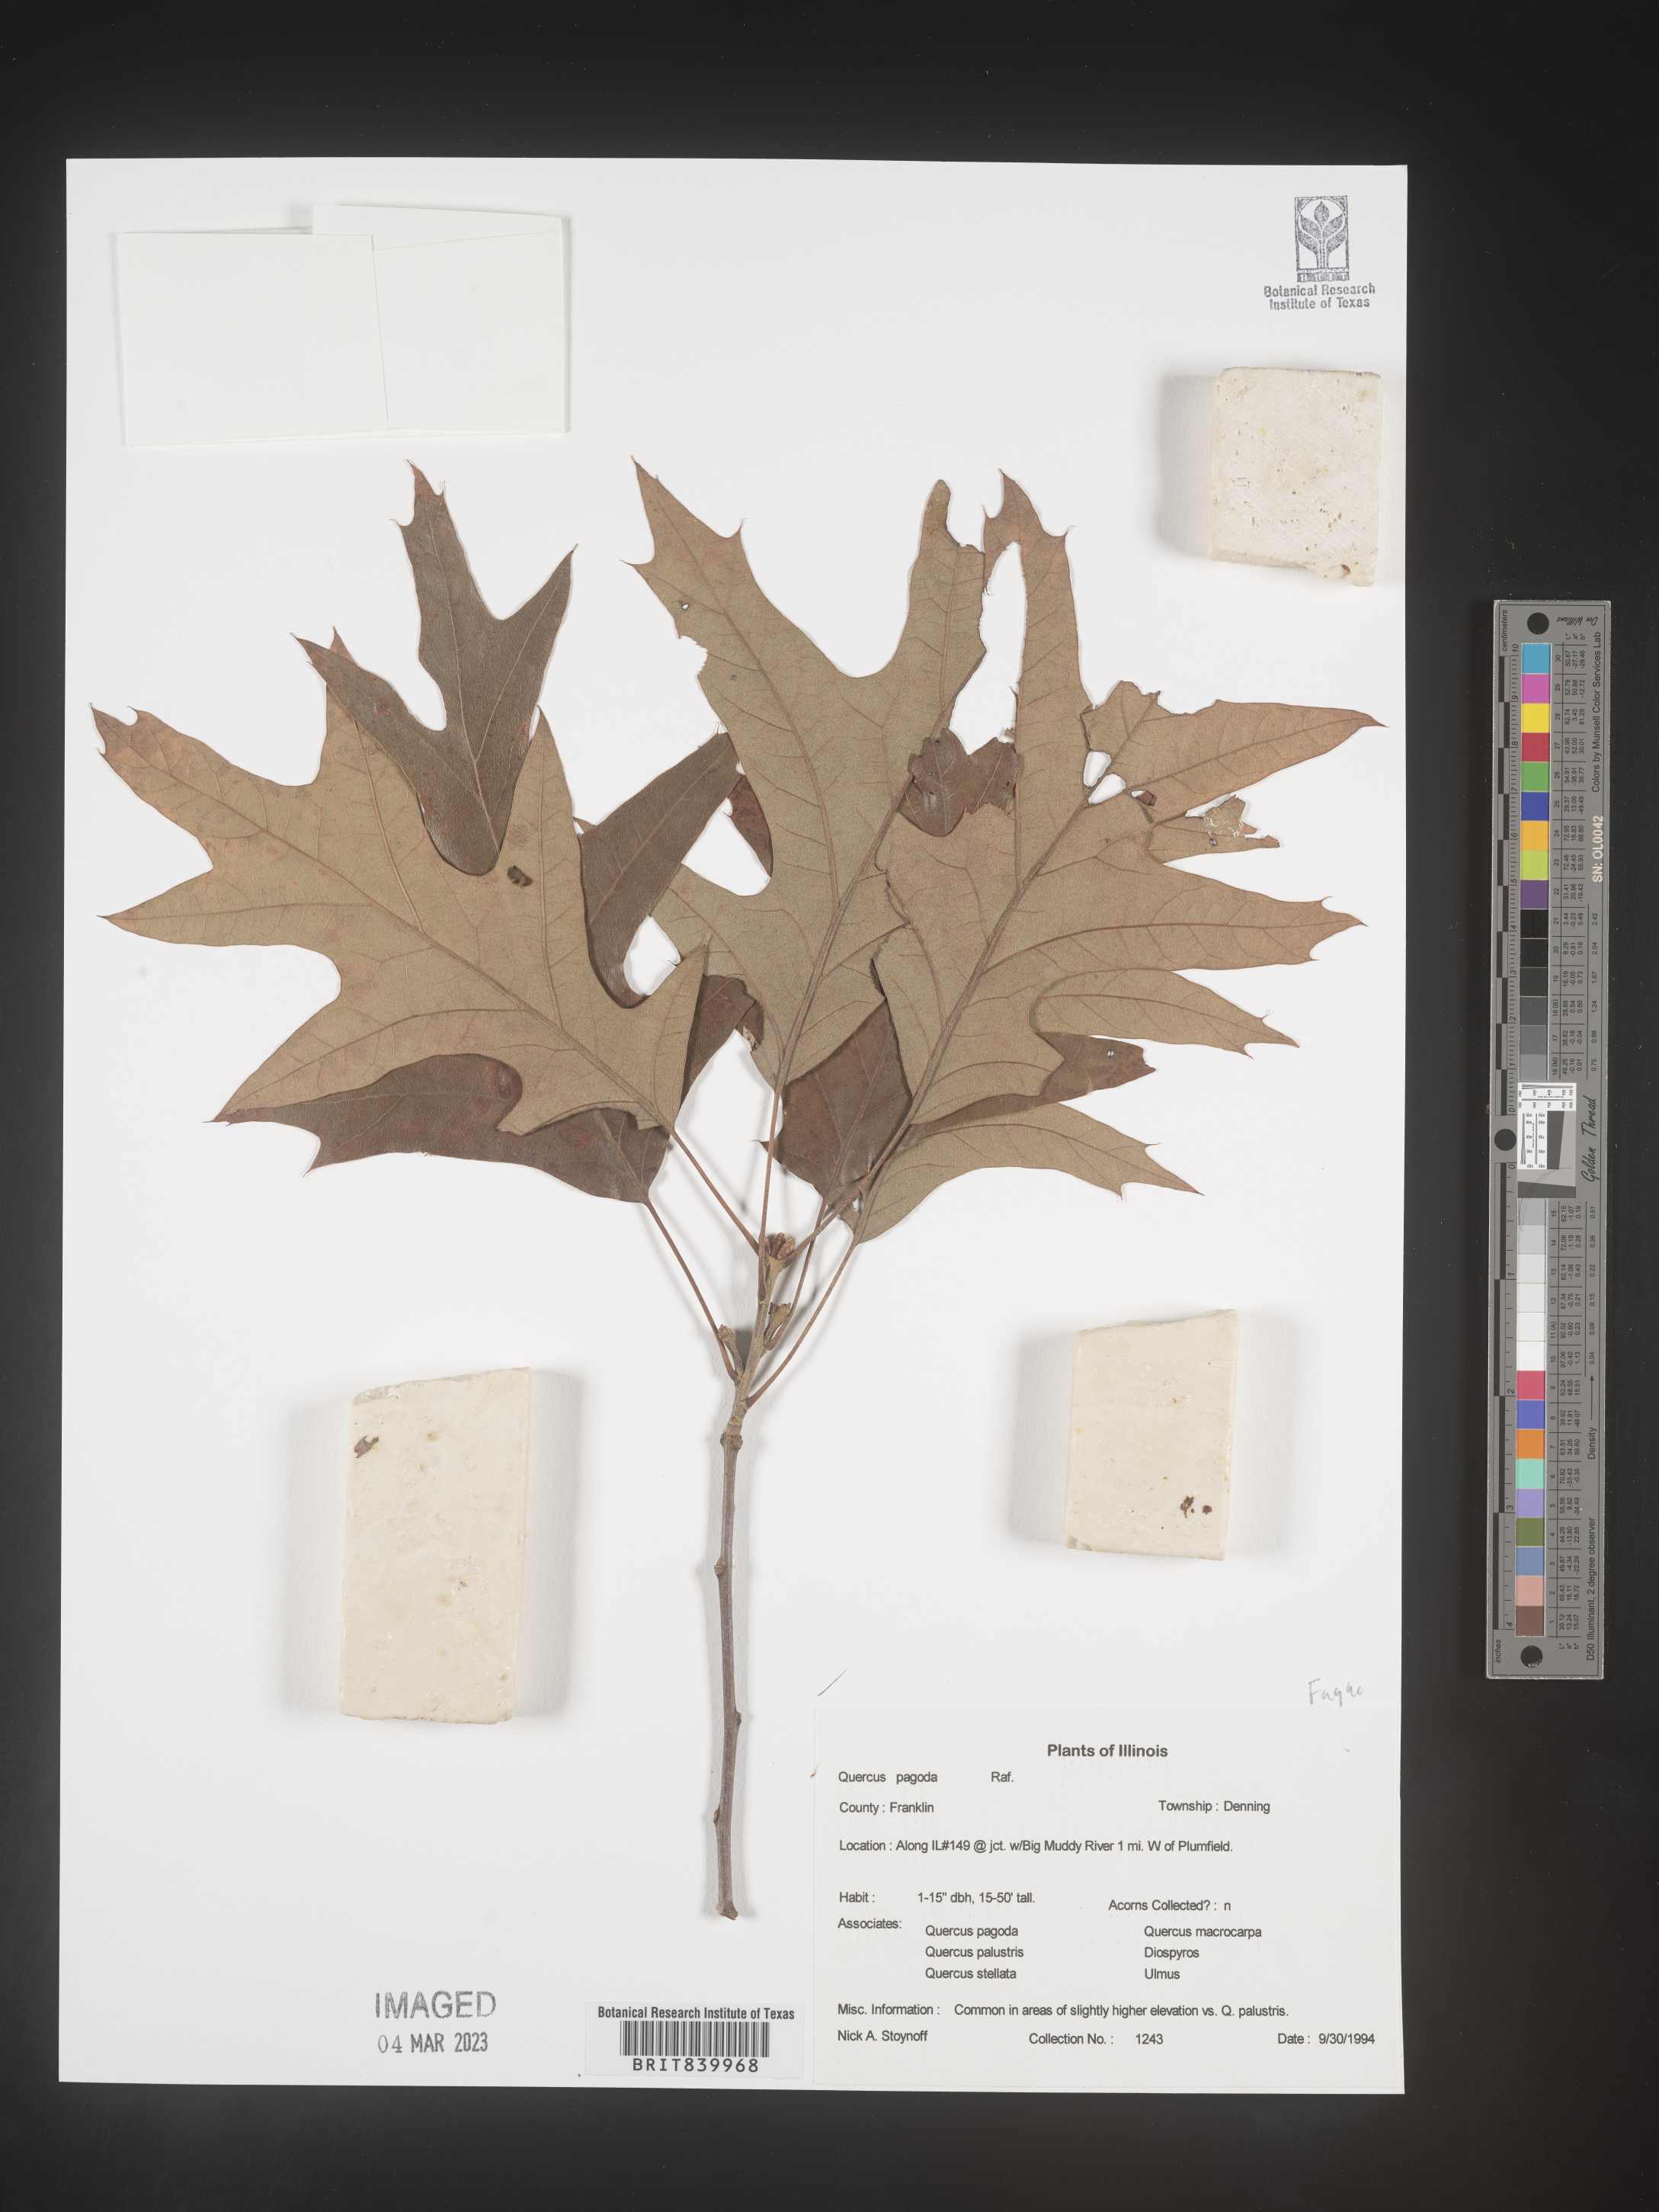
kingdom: Plantae
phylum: Tracheophyta
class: Magnoliopsida
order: Fagales
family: Fagaceae
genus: Quercus
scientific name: Quercus pagoda
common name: Cherrybark oak
